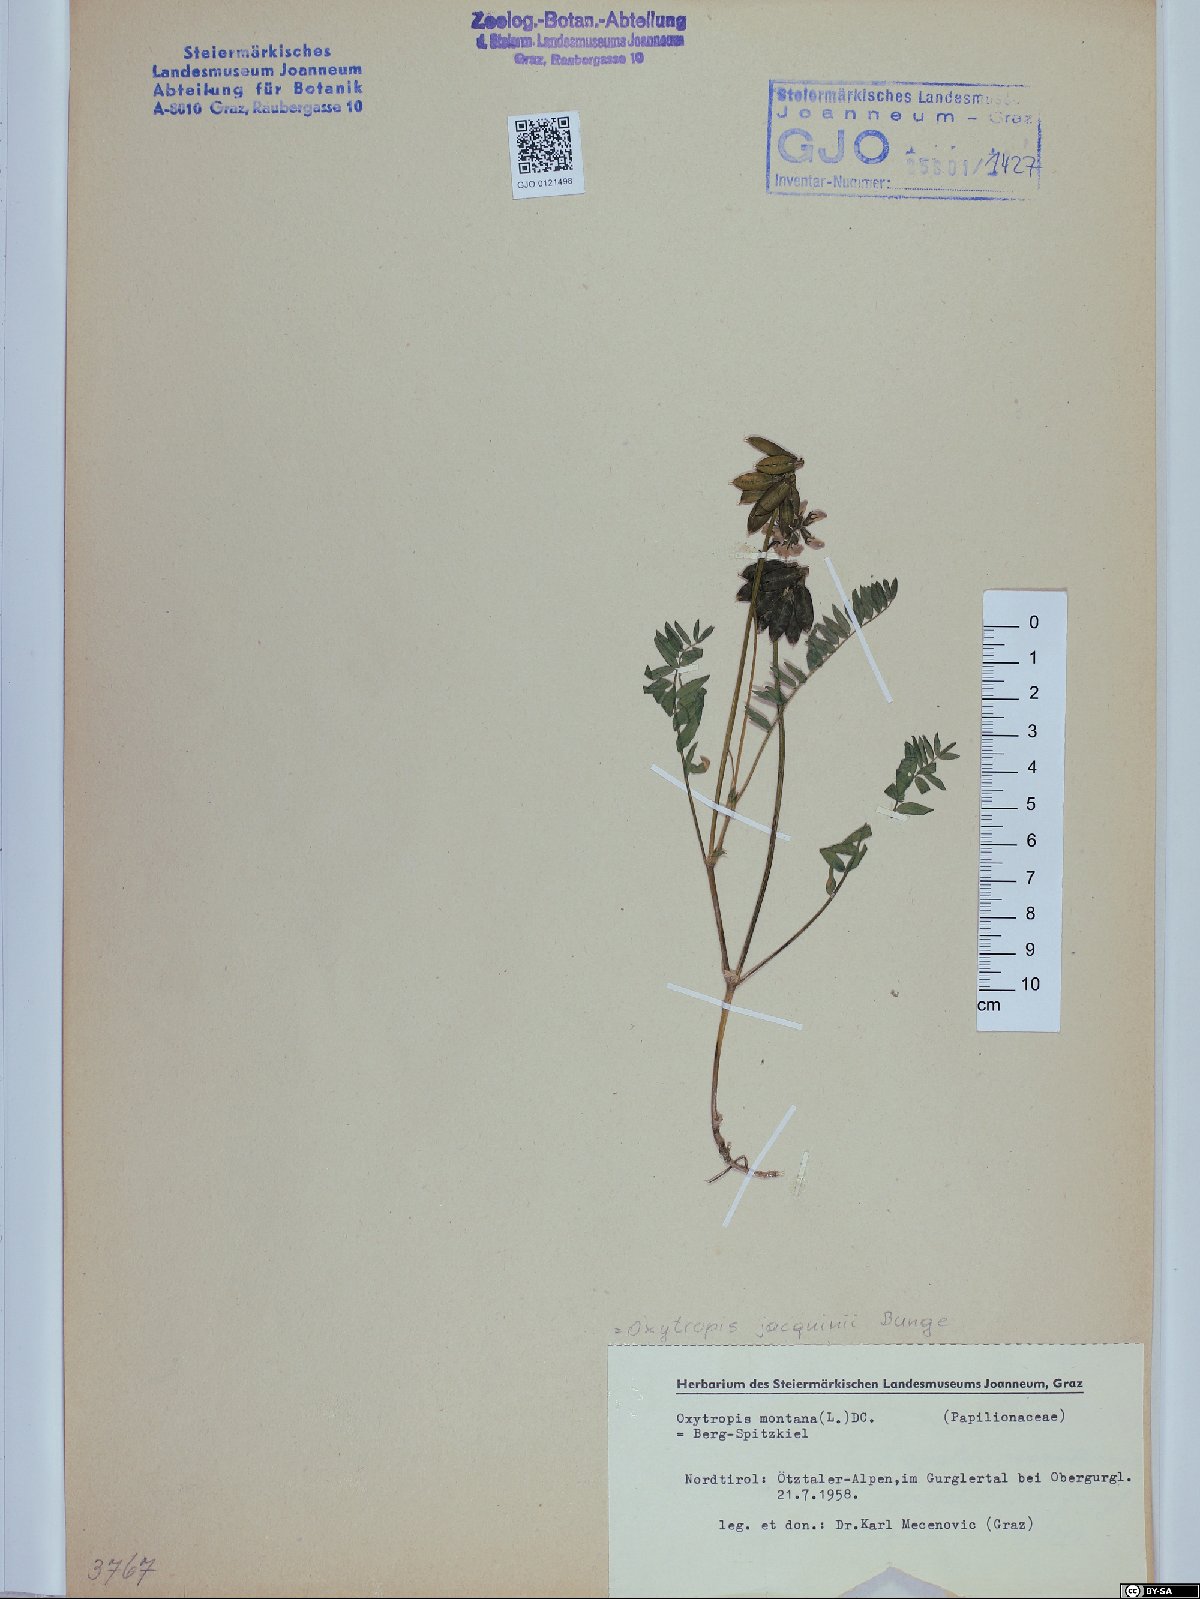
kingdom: Plantae
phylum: Tracheophyta
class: Magnoliopsida
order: Fabales
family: Fabaceae
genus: Oxytropis
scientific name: Oxytropis montana
